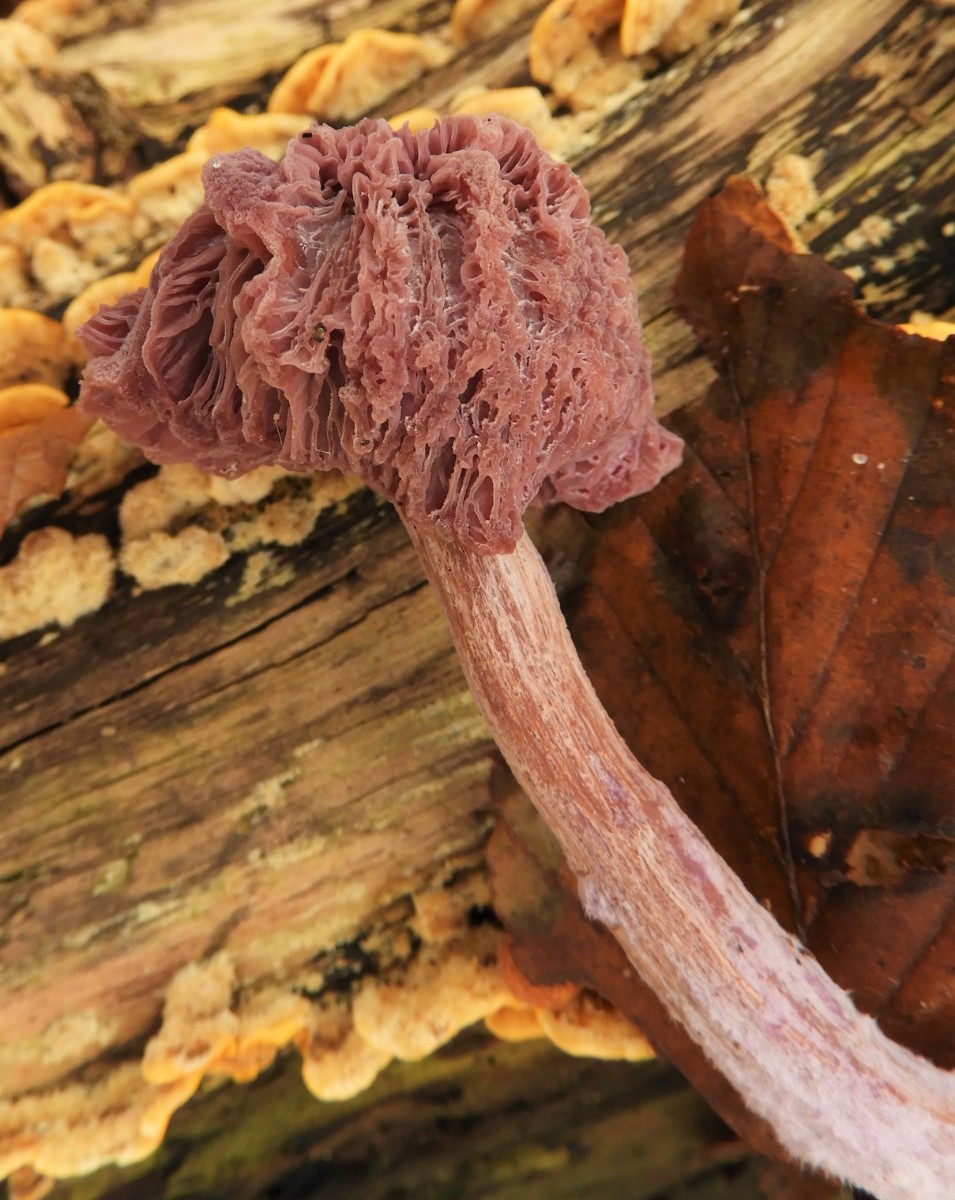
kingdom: Fungi
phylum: Basidiomycota
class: Agaricomycetes
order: Agaricales
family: Hydnangiaceae
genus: Laccaria
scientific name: Laccaria proxima
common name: stor ametysthat
